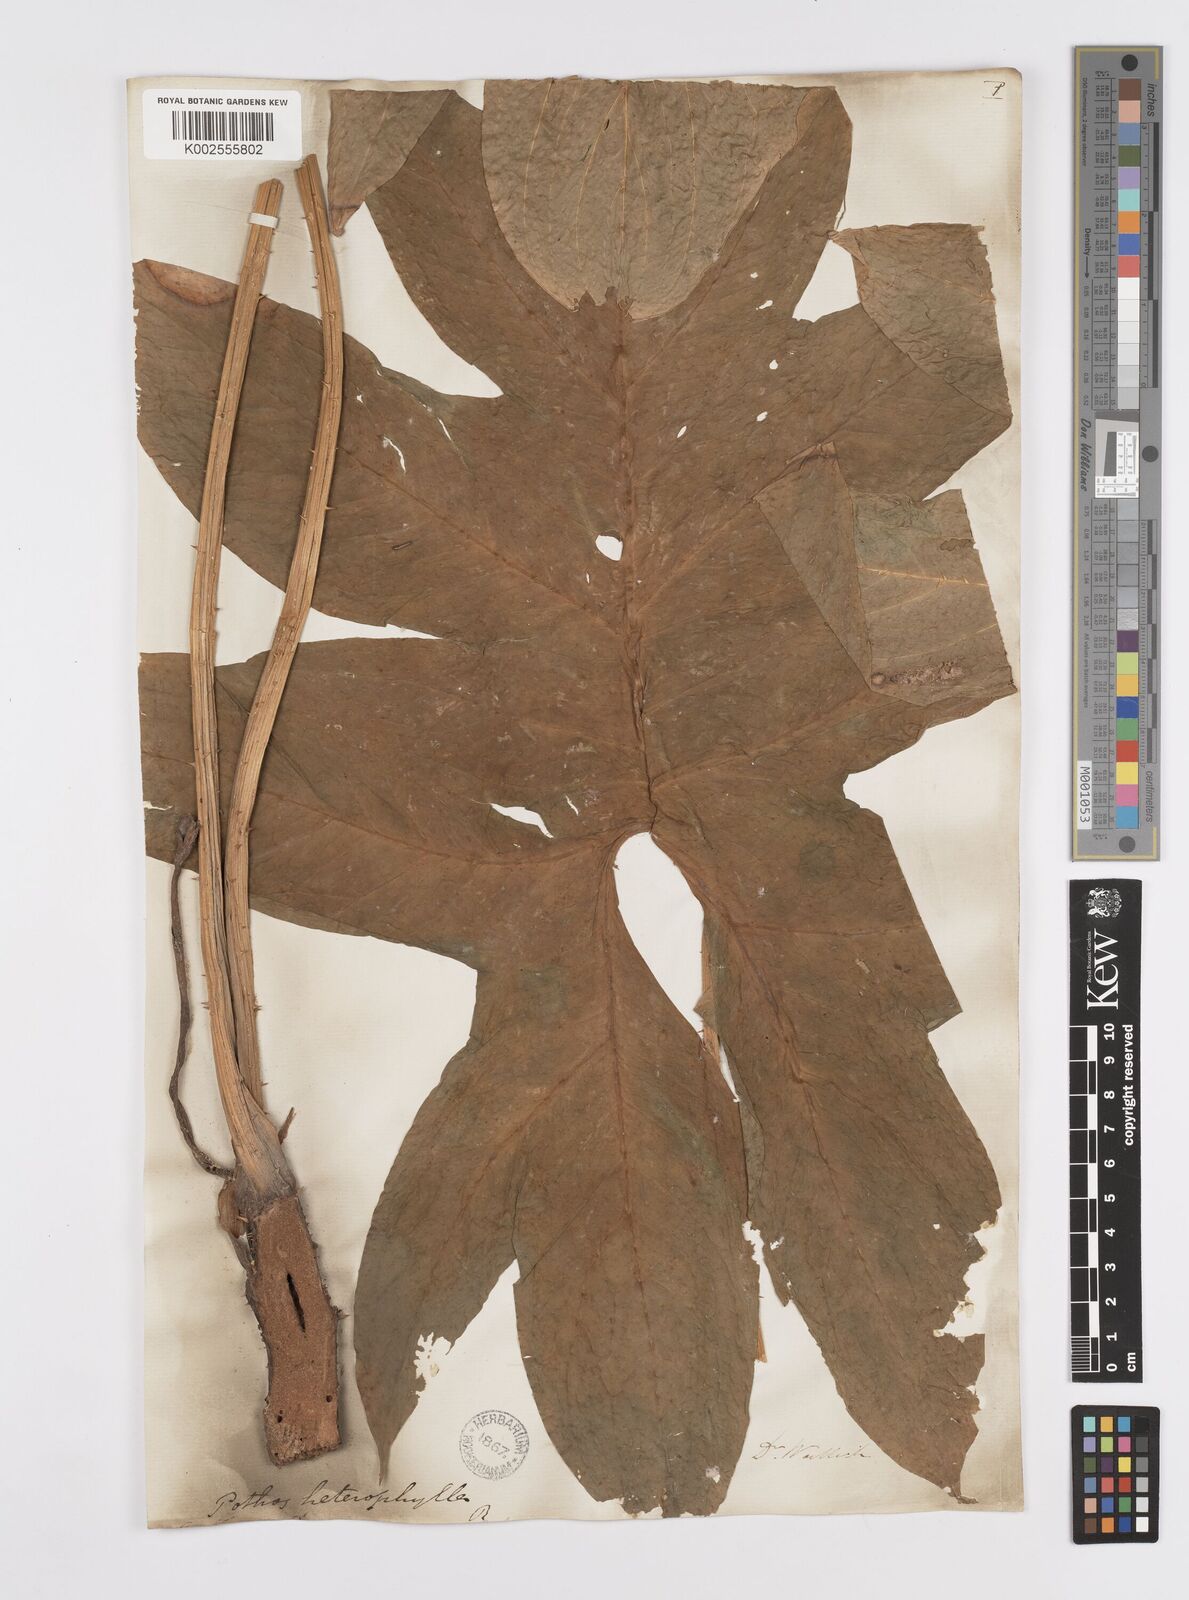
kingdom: Plantae
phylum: Tracheophyta
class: Liliopsida
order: Alismatales
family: Araceae
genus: Lasia
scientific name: Lasia spinosa
